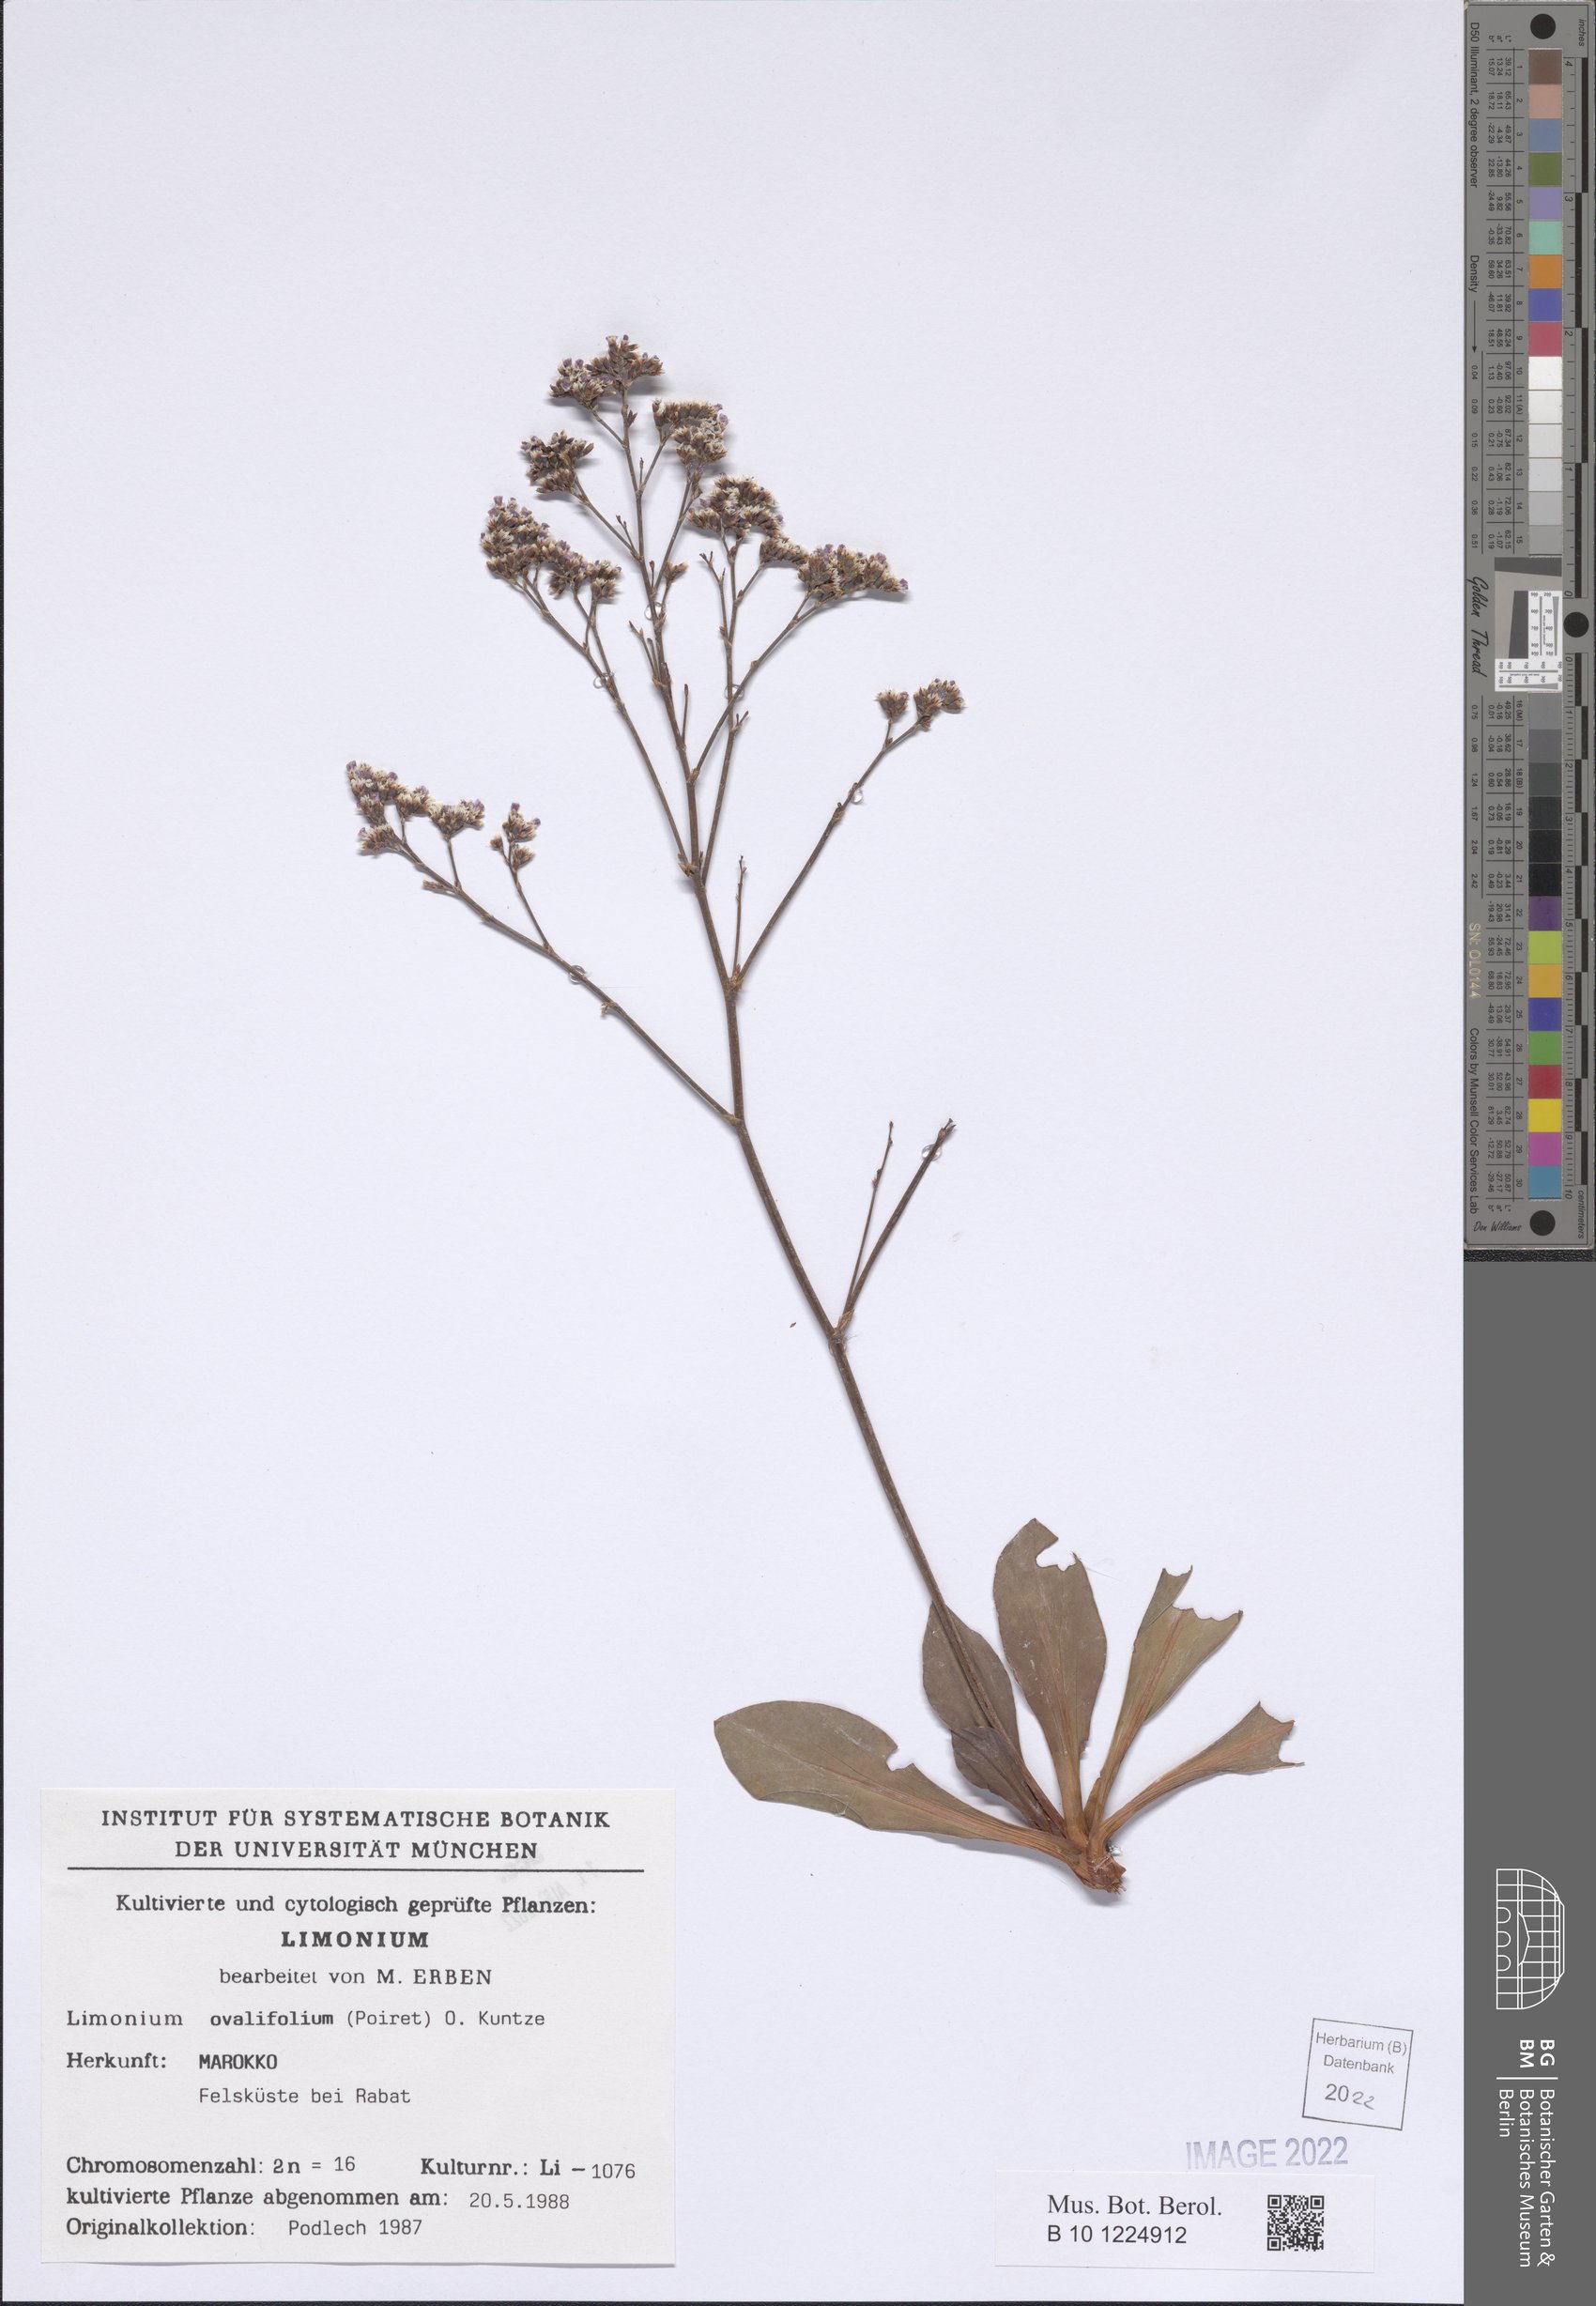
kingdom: Plantae
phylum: Tracheophyta
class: Magnoliopsida
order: Caryophyllales
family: Plumbaginaceae
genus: Limonium
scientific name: Limonium ovalifolium
